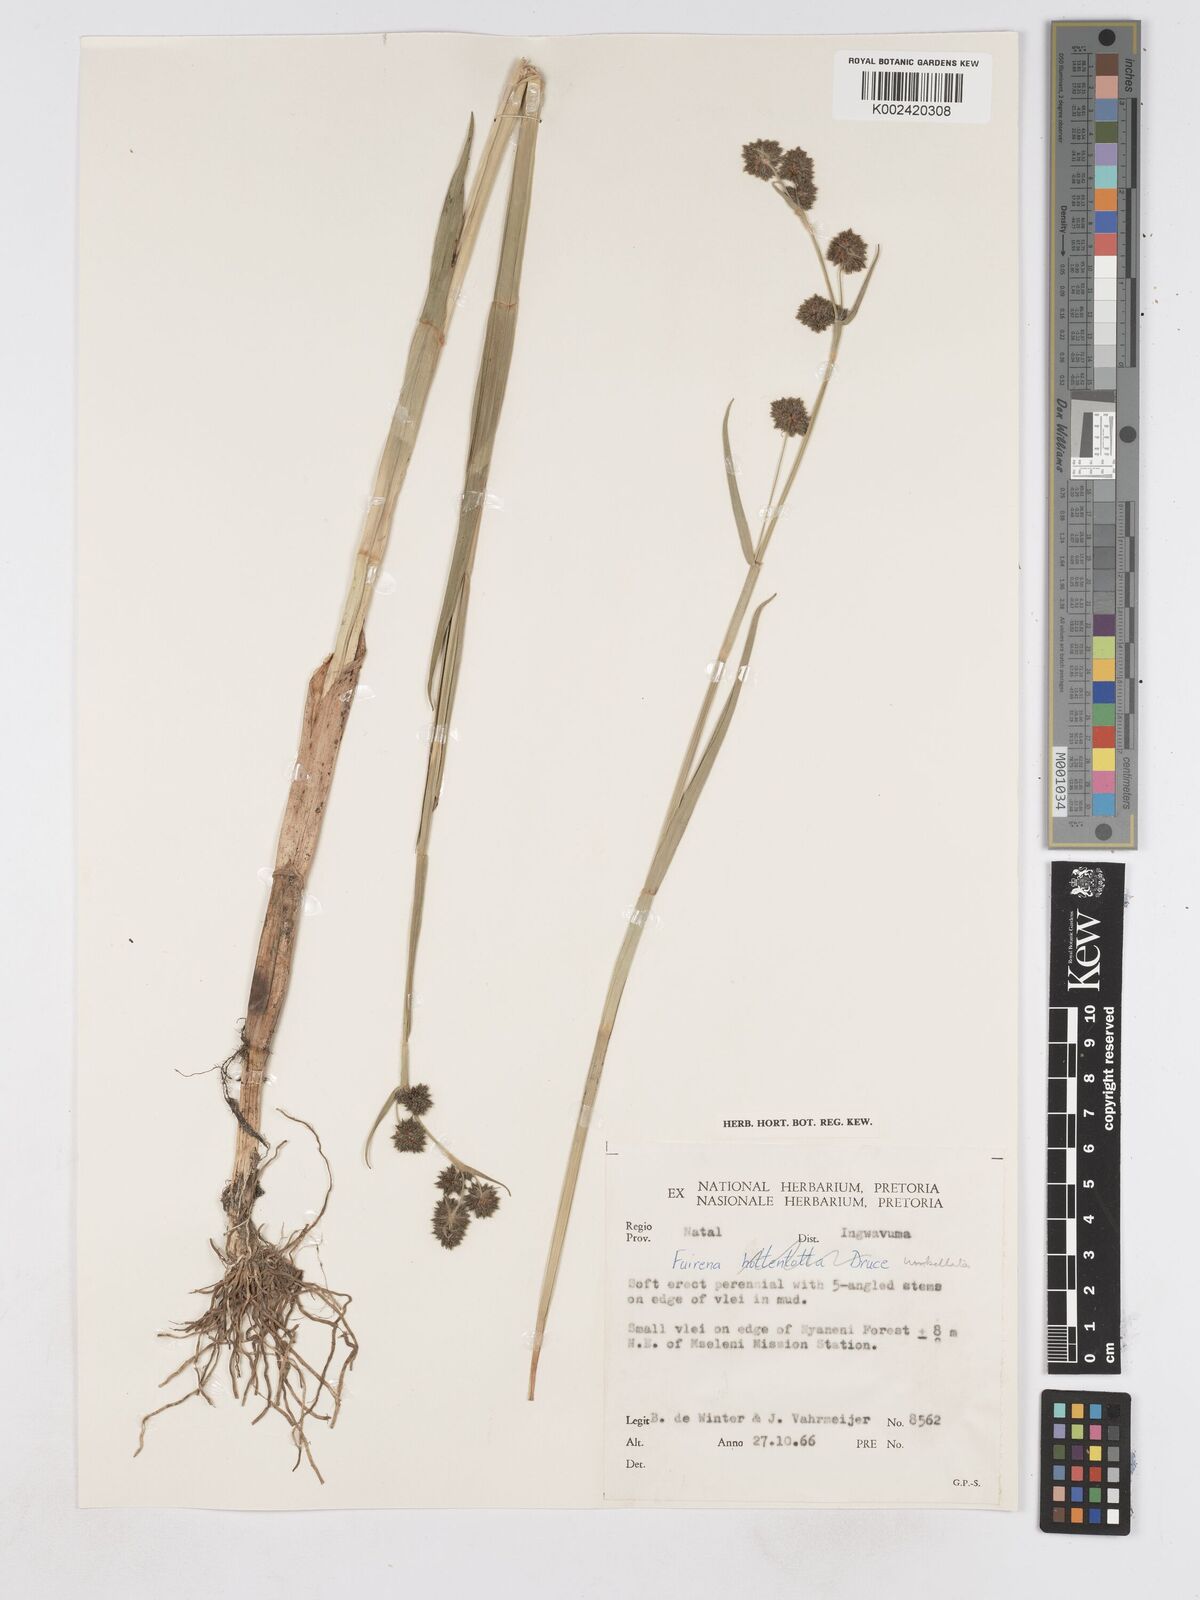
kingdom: Plantae
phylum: Tracheophyta
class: Liliopsida
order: Poales
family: Cyperaceae
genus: Fuirena
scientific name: Fuirena umbellata
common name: Yefen
